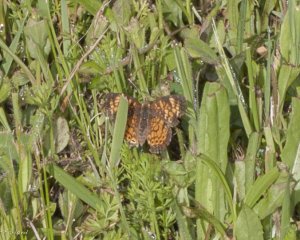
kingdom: Animalia
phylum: Arthropoda
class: Insecta
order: Lepidoptera
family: Nymphalidae
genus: Phyciodes
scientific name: Phyciodes tharos
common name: Pearl Crescent
